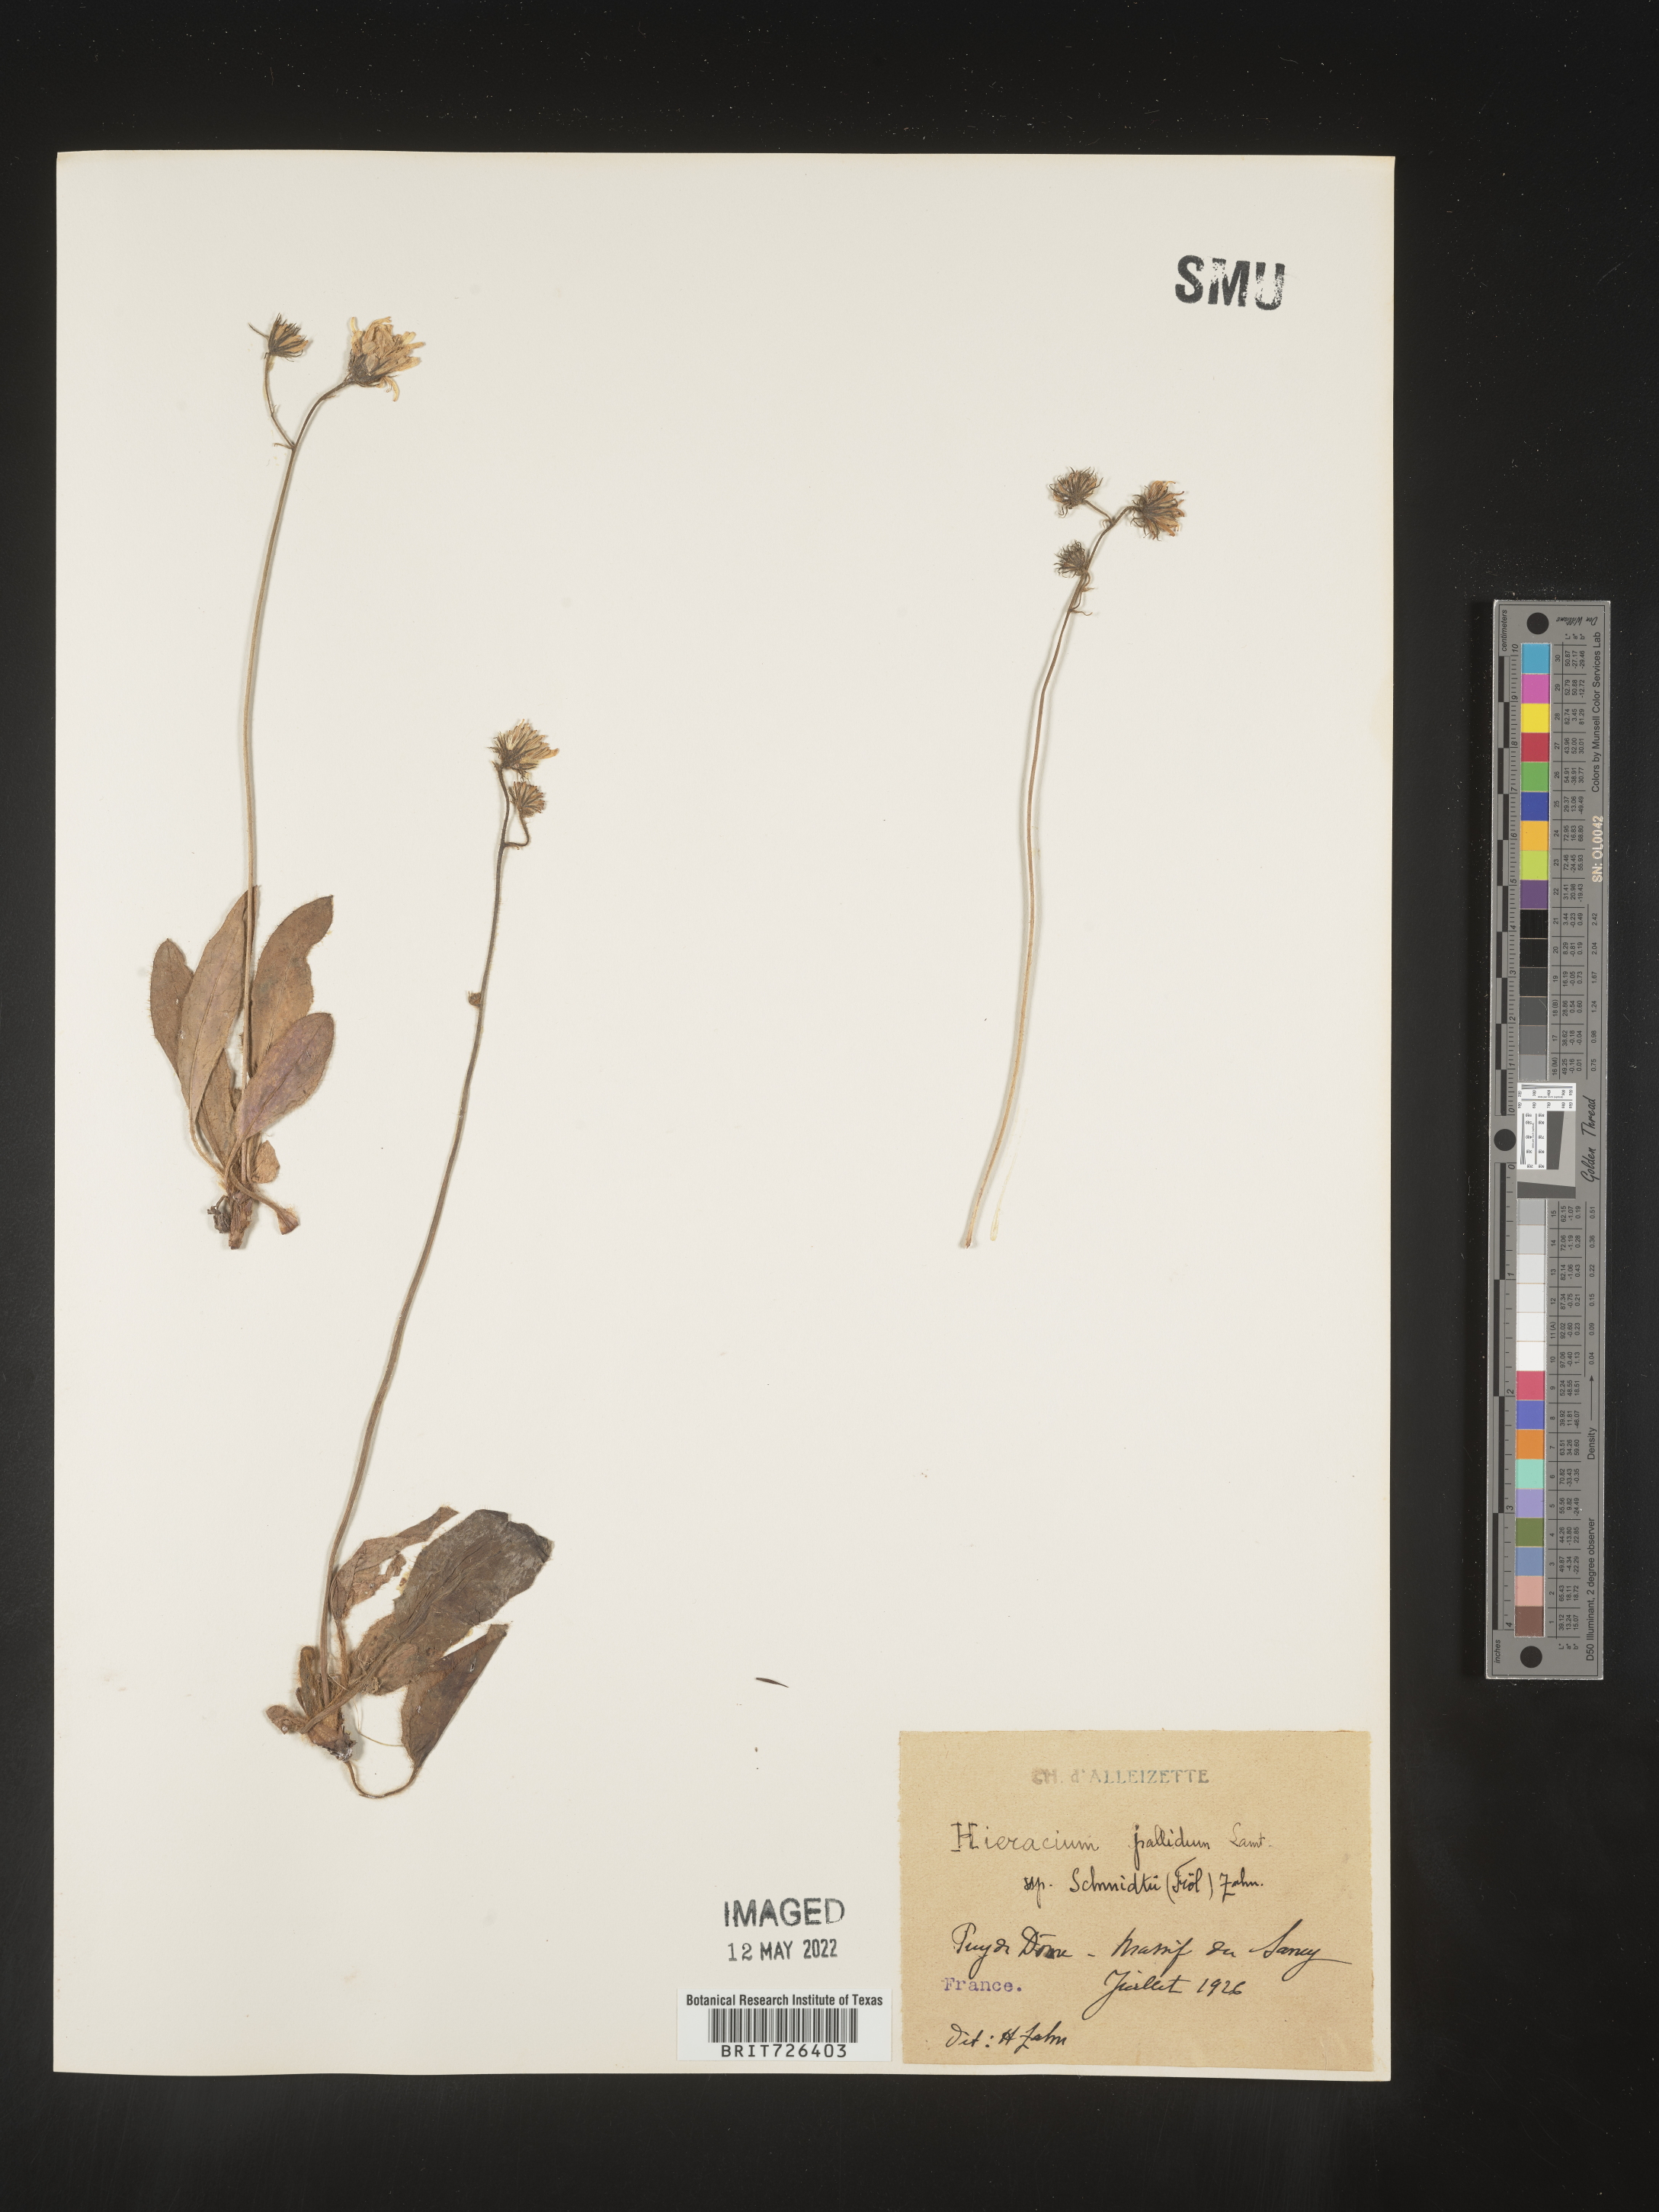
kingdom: Plantae
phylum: Tracheophyta
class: Magnoliopsida
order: Asterales
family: Asteraceae
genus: Hieracium
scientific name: Hieracium
